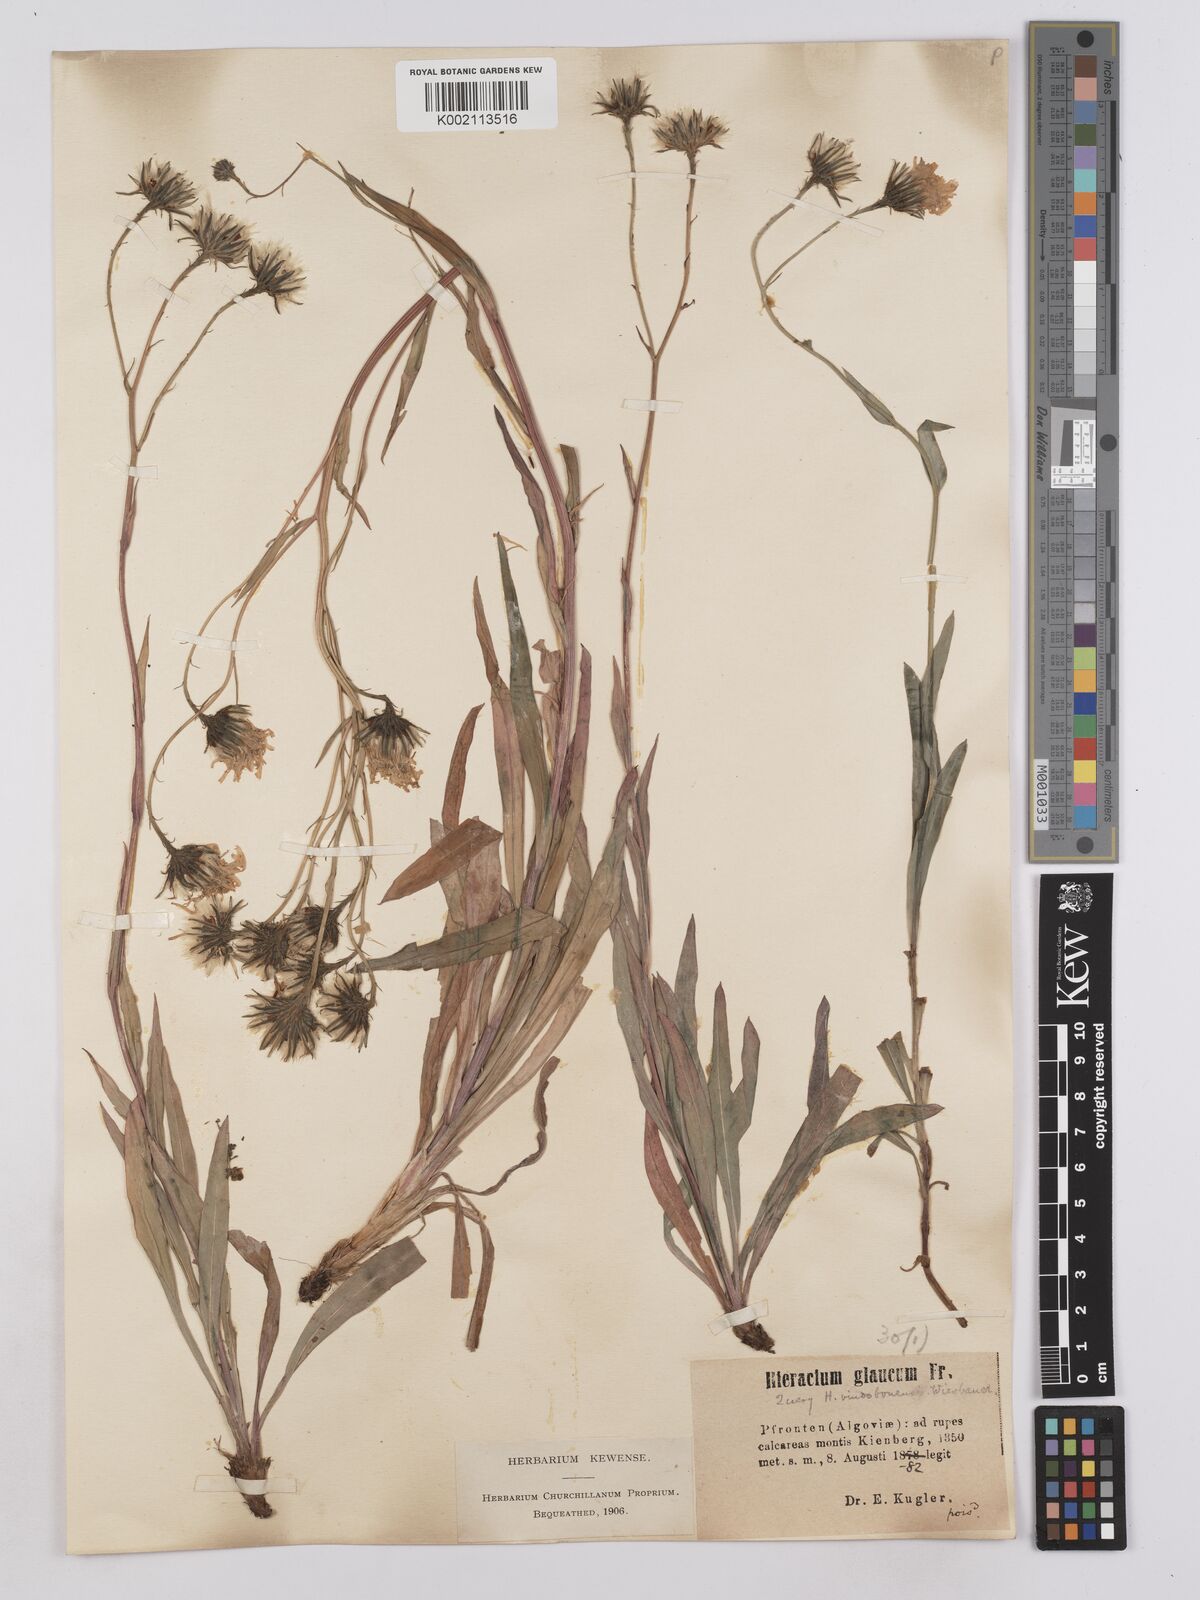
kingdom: Plantae
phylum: Tracheophyta
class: Magnoliopsida
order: Asterales
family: Asteraceae
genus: Hieracium
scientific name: Hieracium vindobonense
